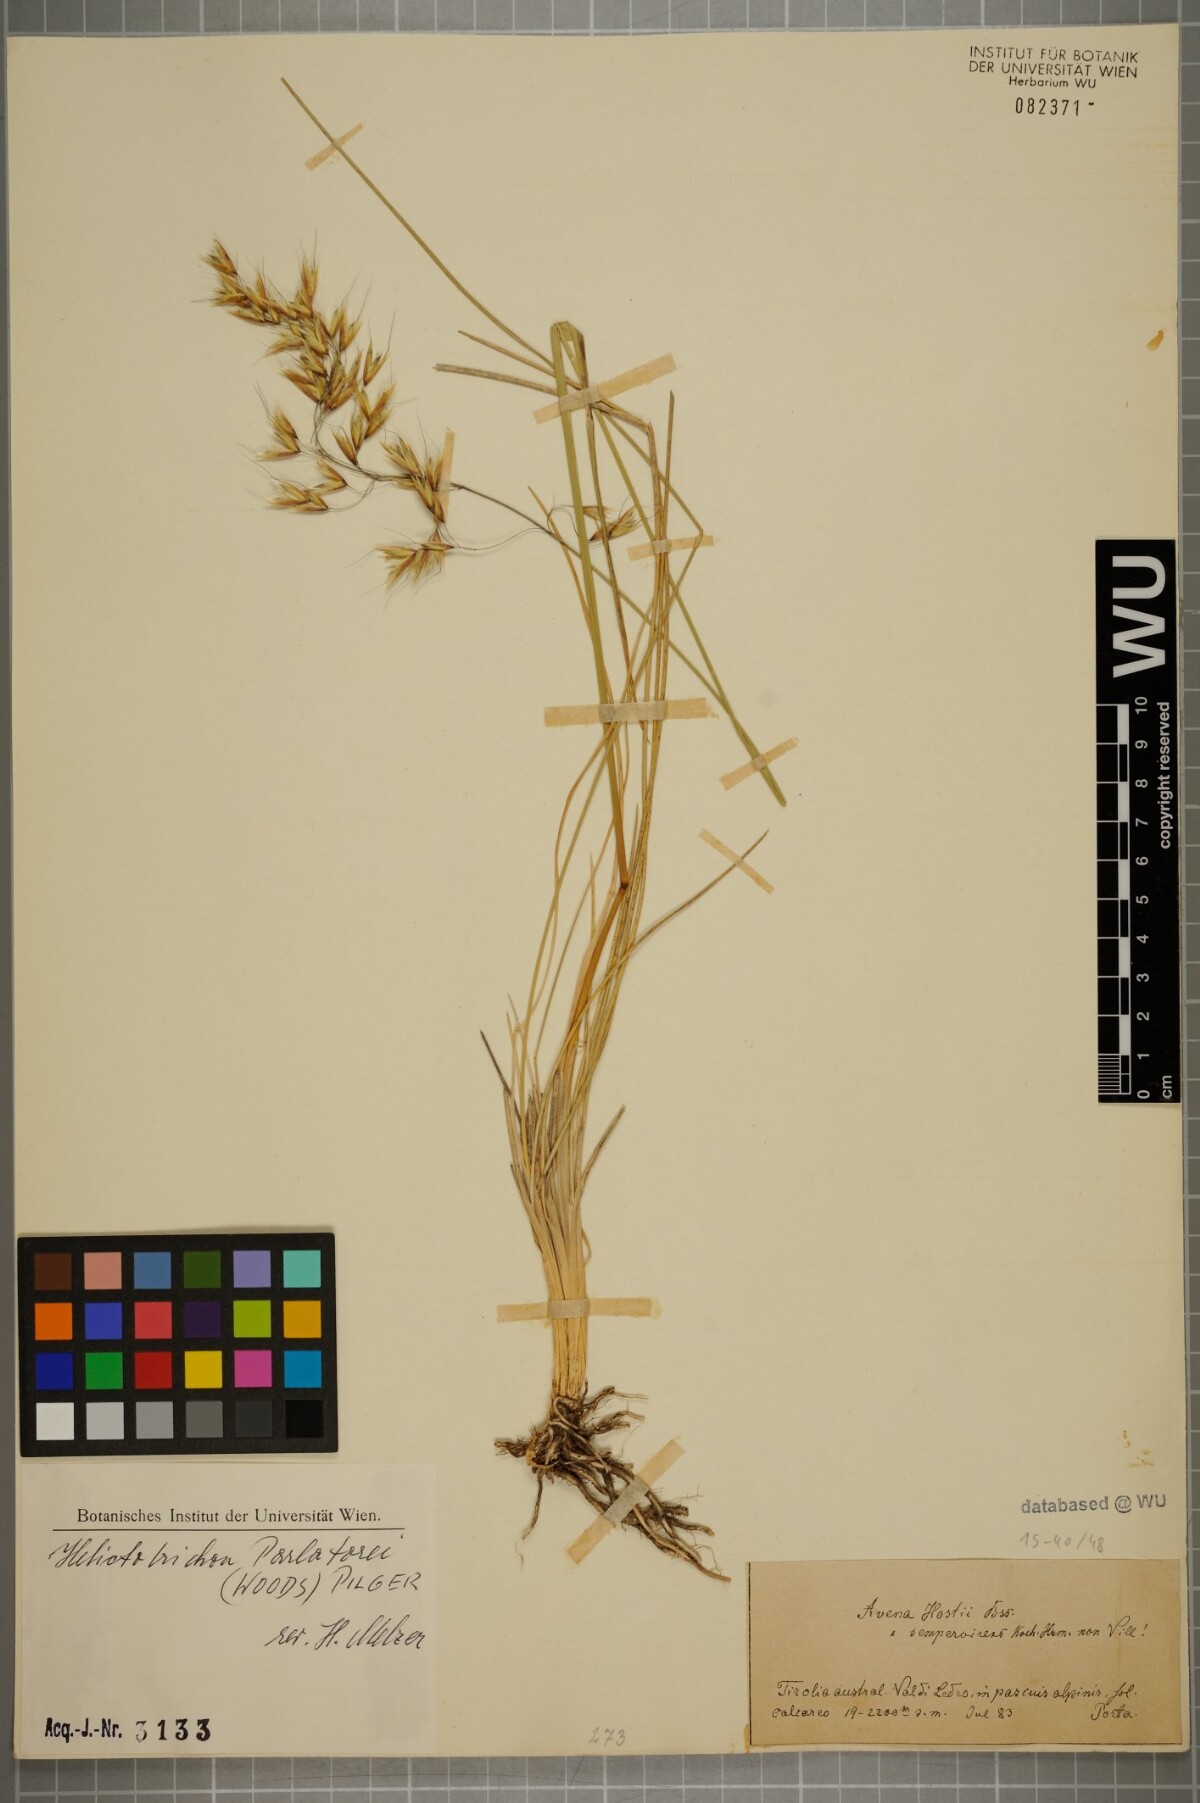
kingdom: Plantae
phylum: Tracheophyta
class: Liliopsida
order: Poales
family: Poaceae
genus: Helictotrichon
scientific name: Helictotrichon parlatorei
